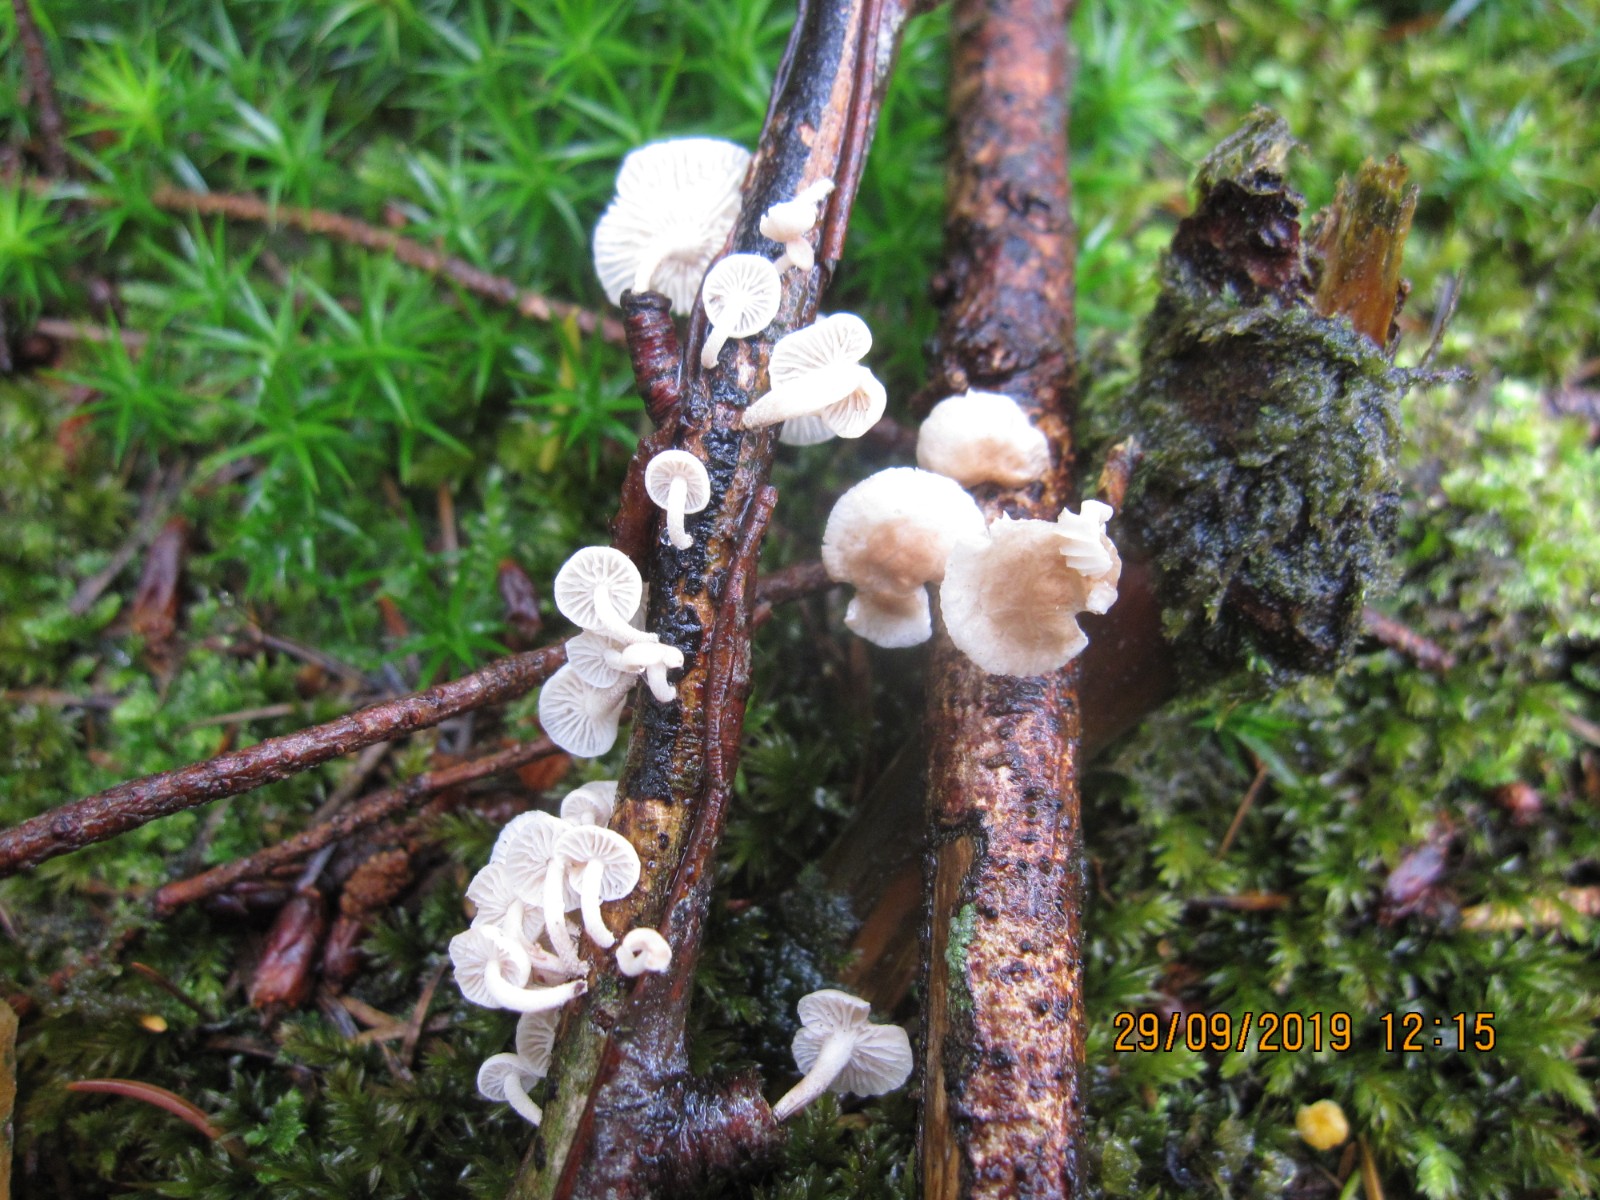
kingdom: Fungi
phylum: Basidiomycota
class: Agaricomycetes
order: Agaricales
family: Omphalotaceae
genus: Collybiopsis
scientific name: Collybiopsis ramealis
